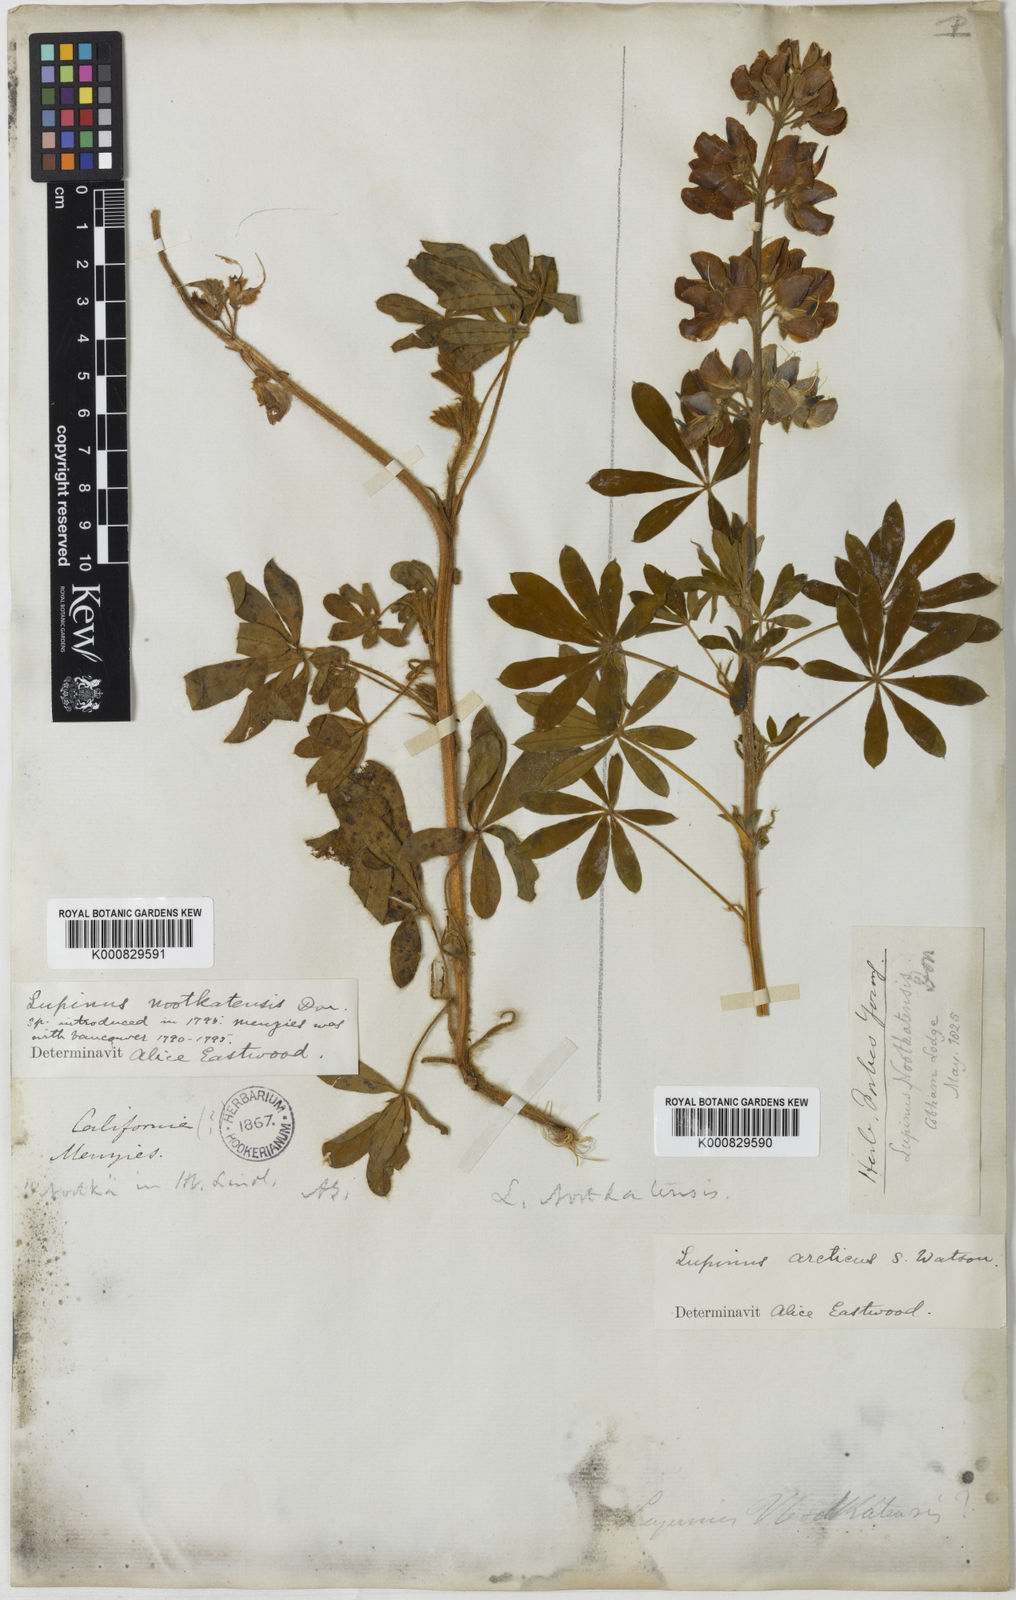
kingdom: Plantae
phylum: Tracheophyta
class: Magnoliopsida
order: Fabales
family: Fabaceae
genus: Lupinus
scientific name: Lupinus nootkatensis
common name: Nootka lupine
